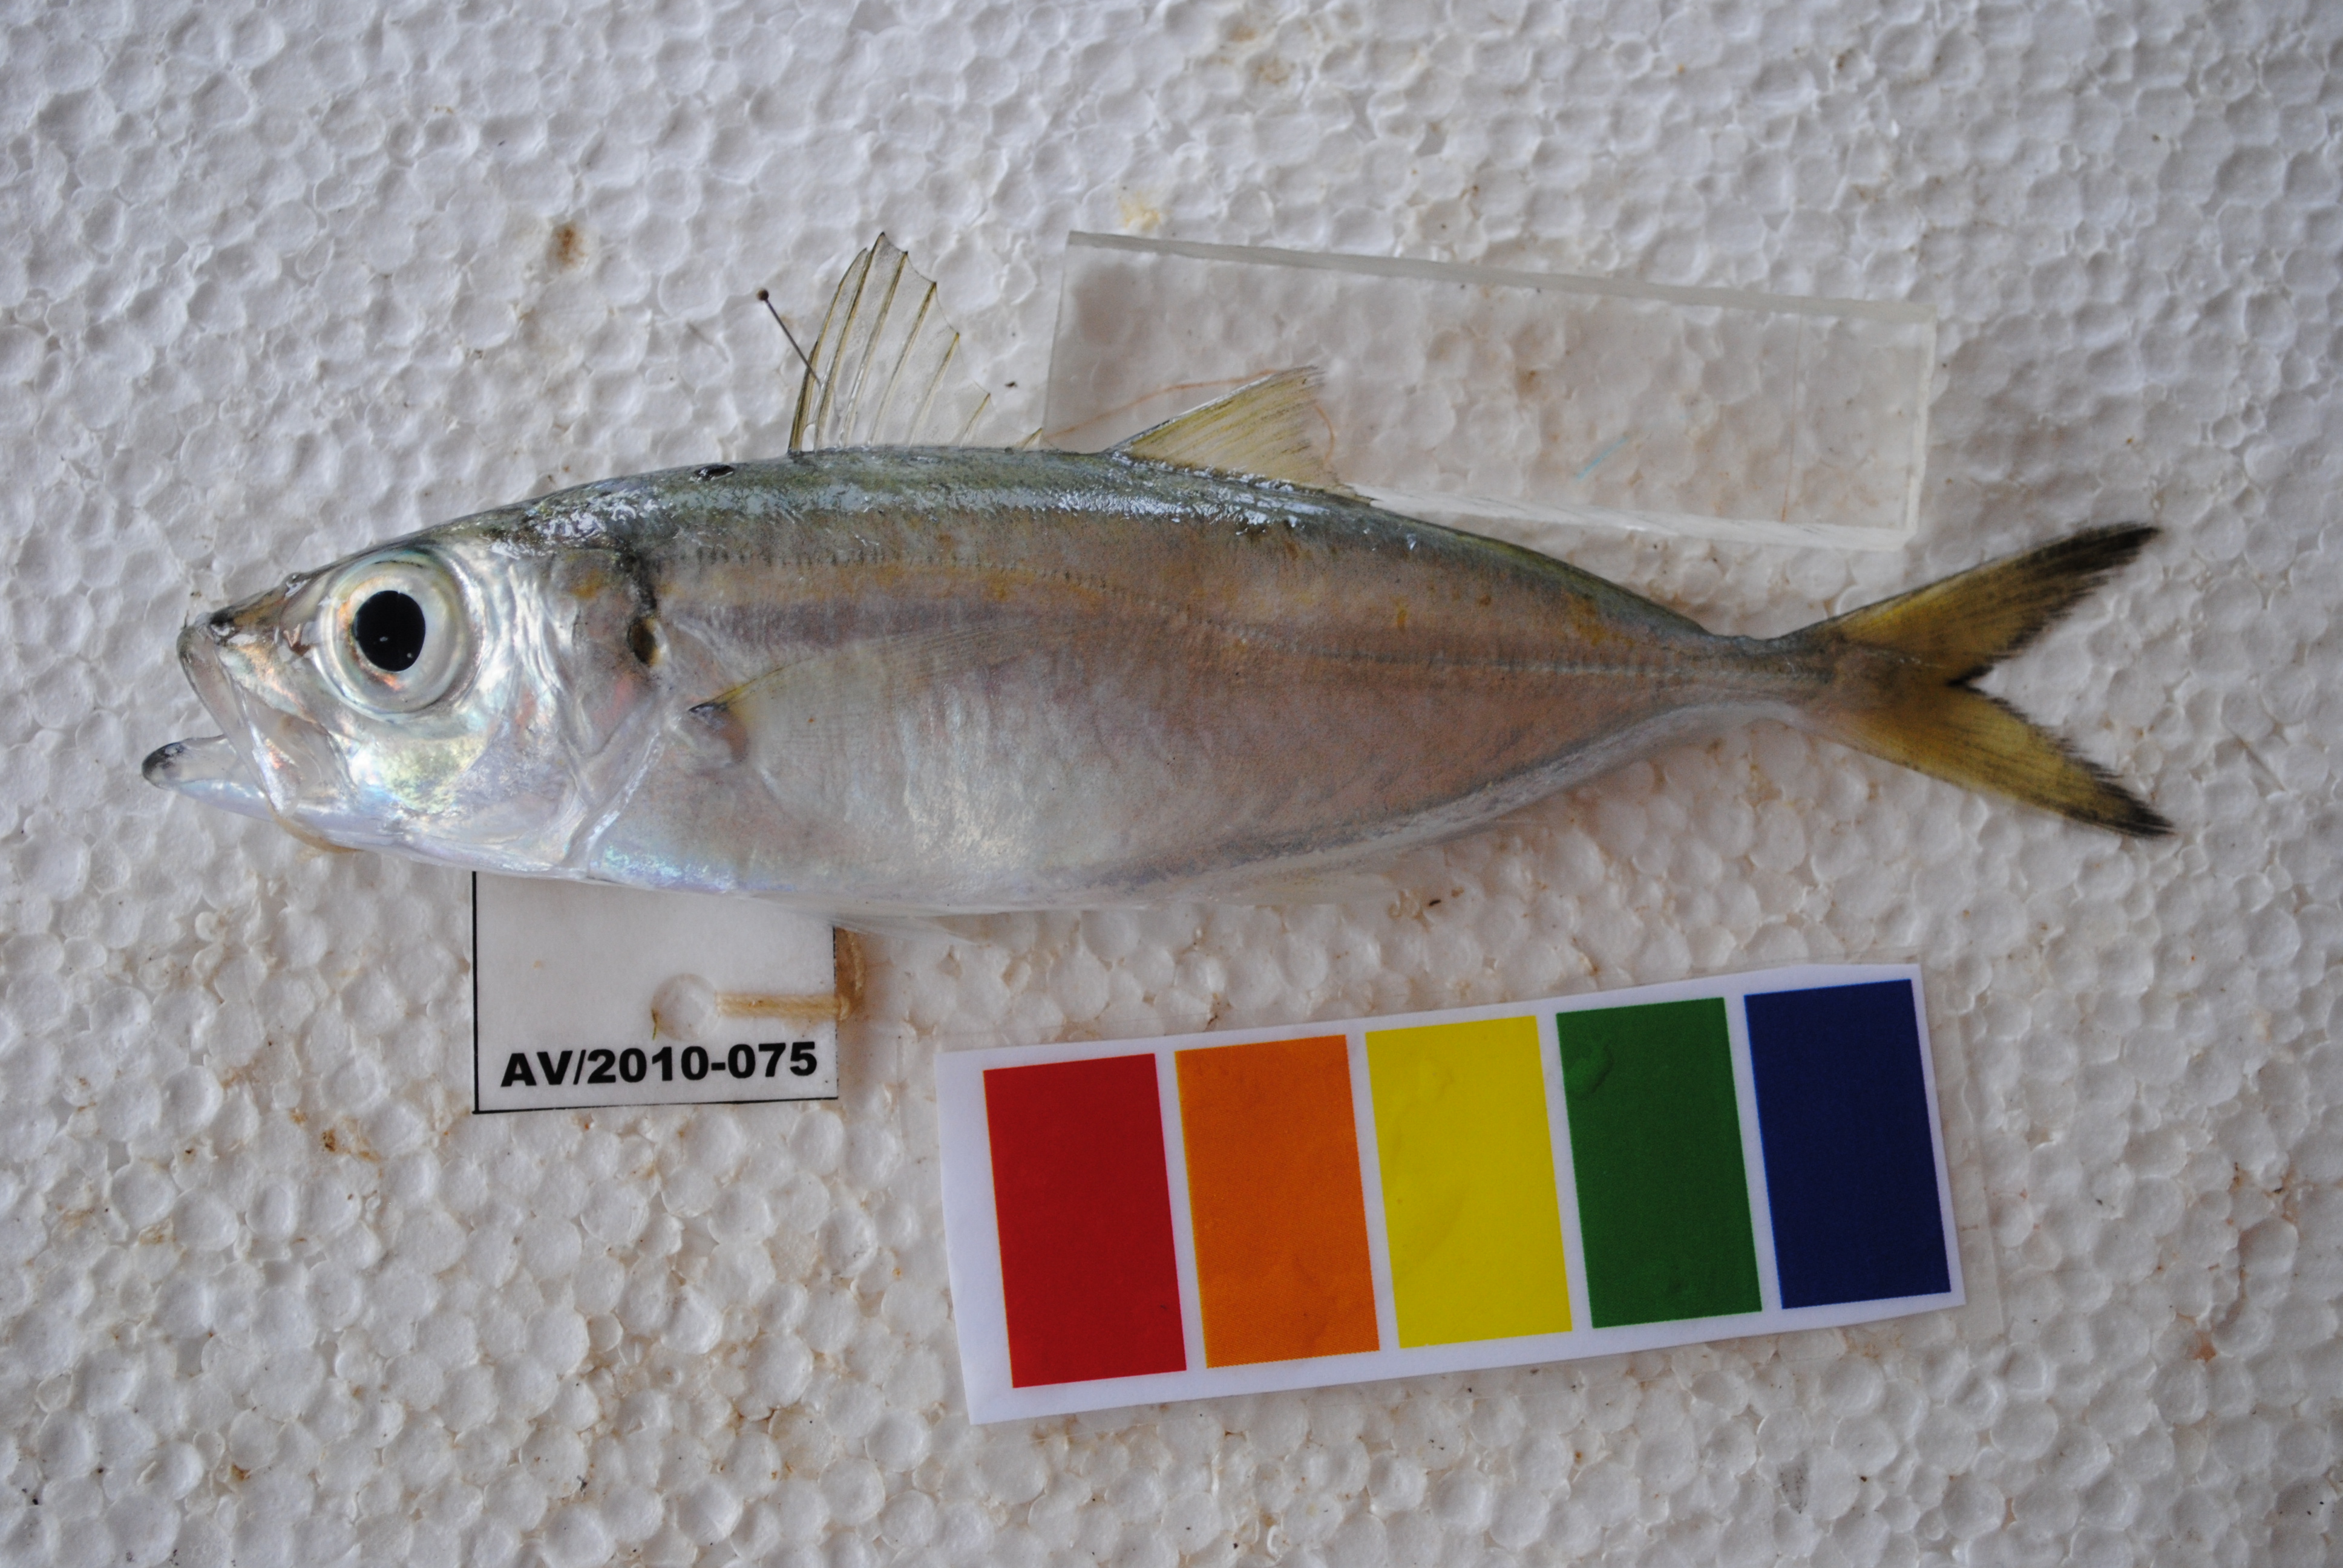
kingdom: Animalia
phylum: Chordata
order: Perciformes
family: Carangidae
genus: Selar
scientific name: Selar crumenophthalmus
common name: Bigeye scad
